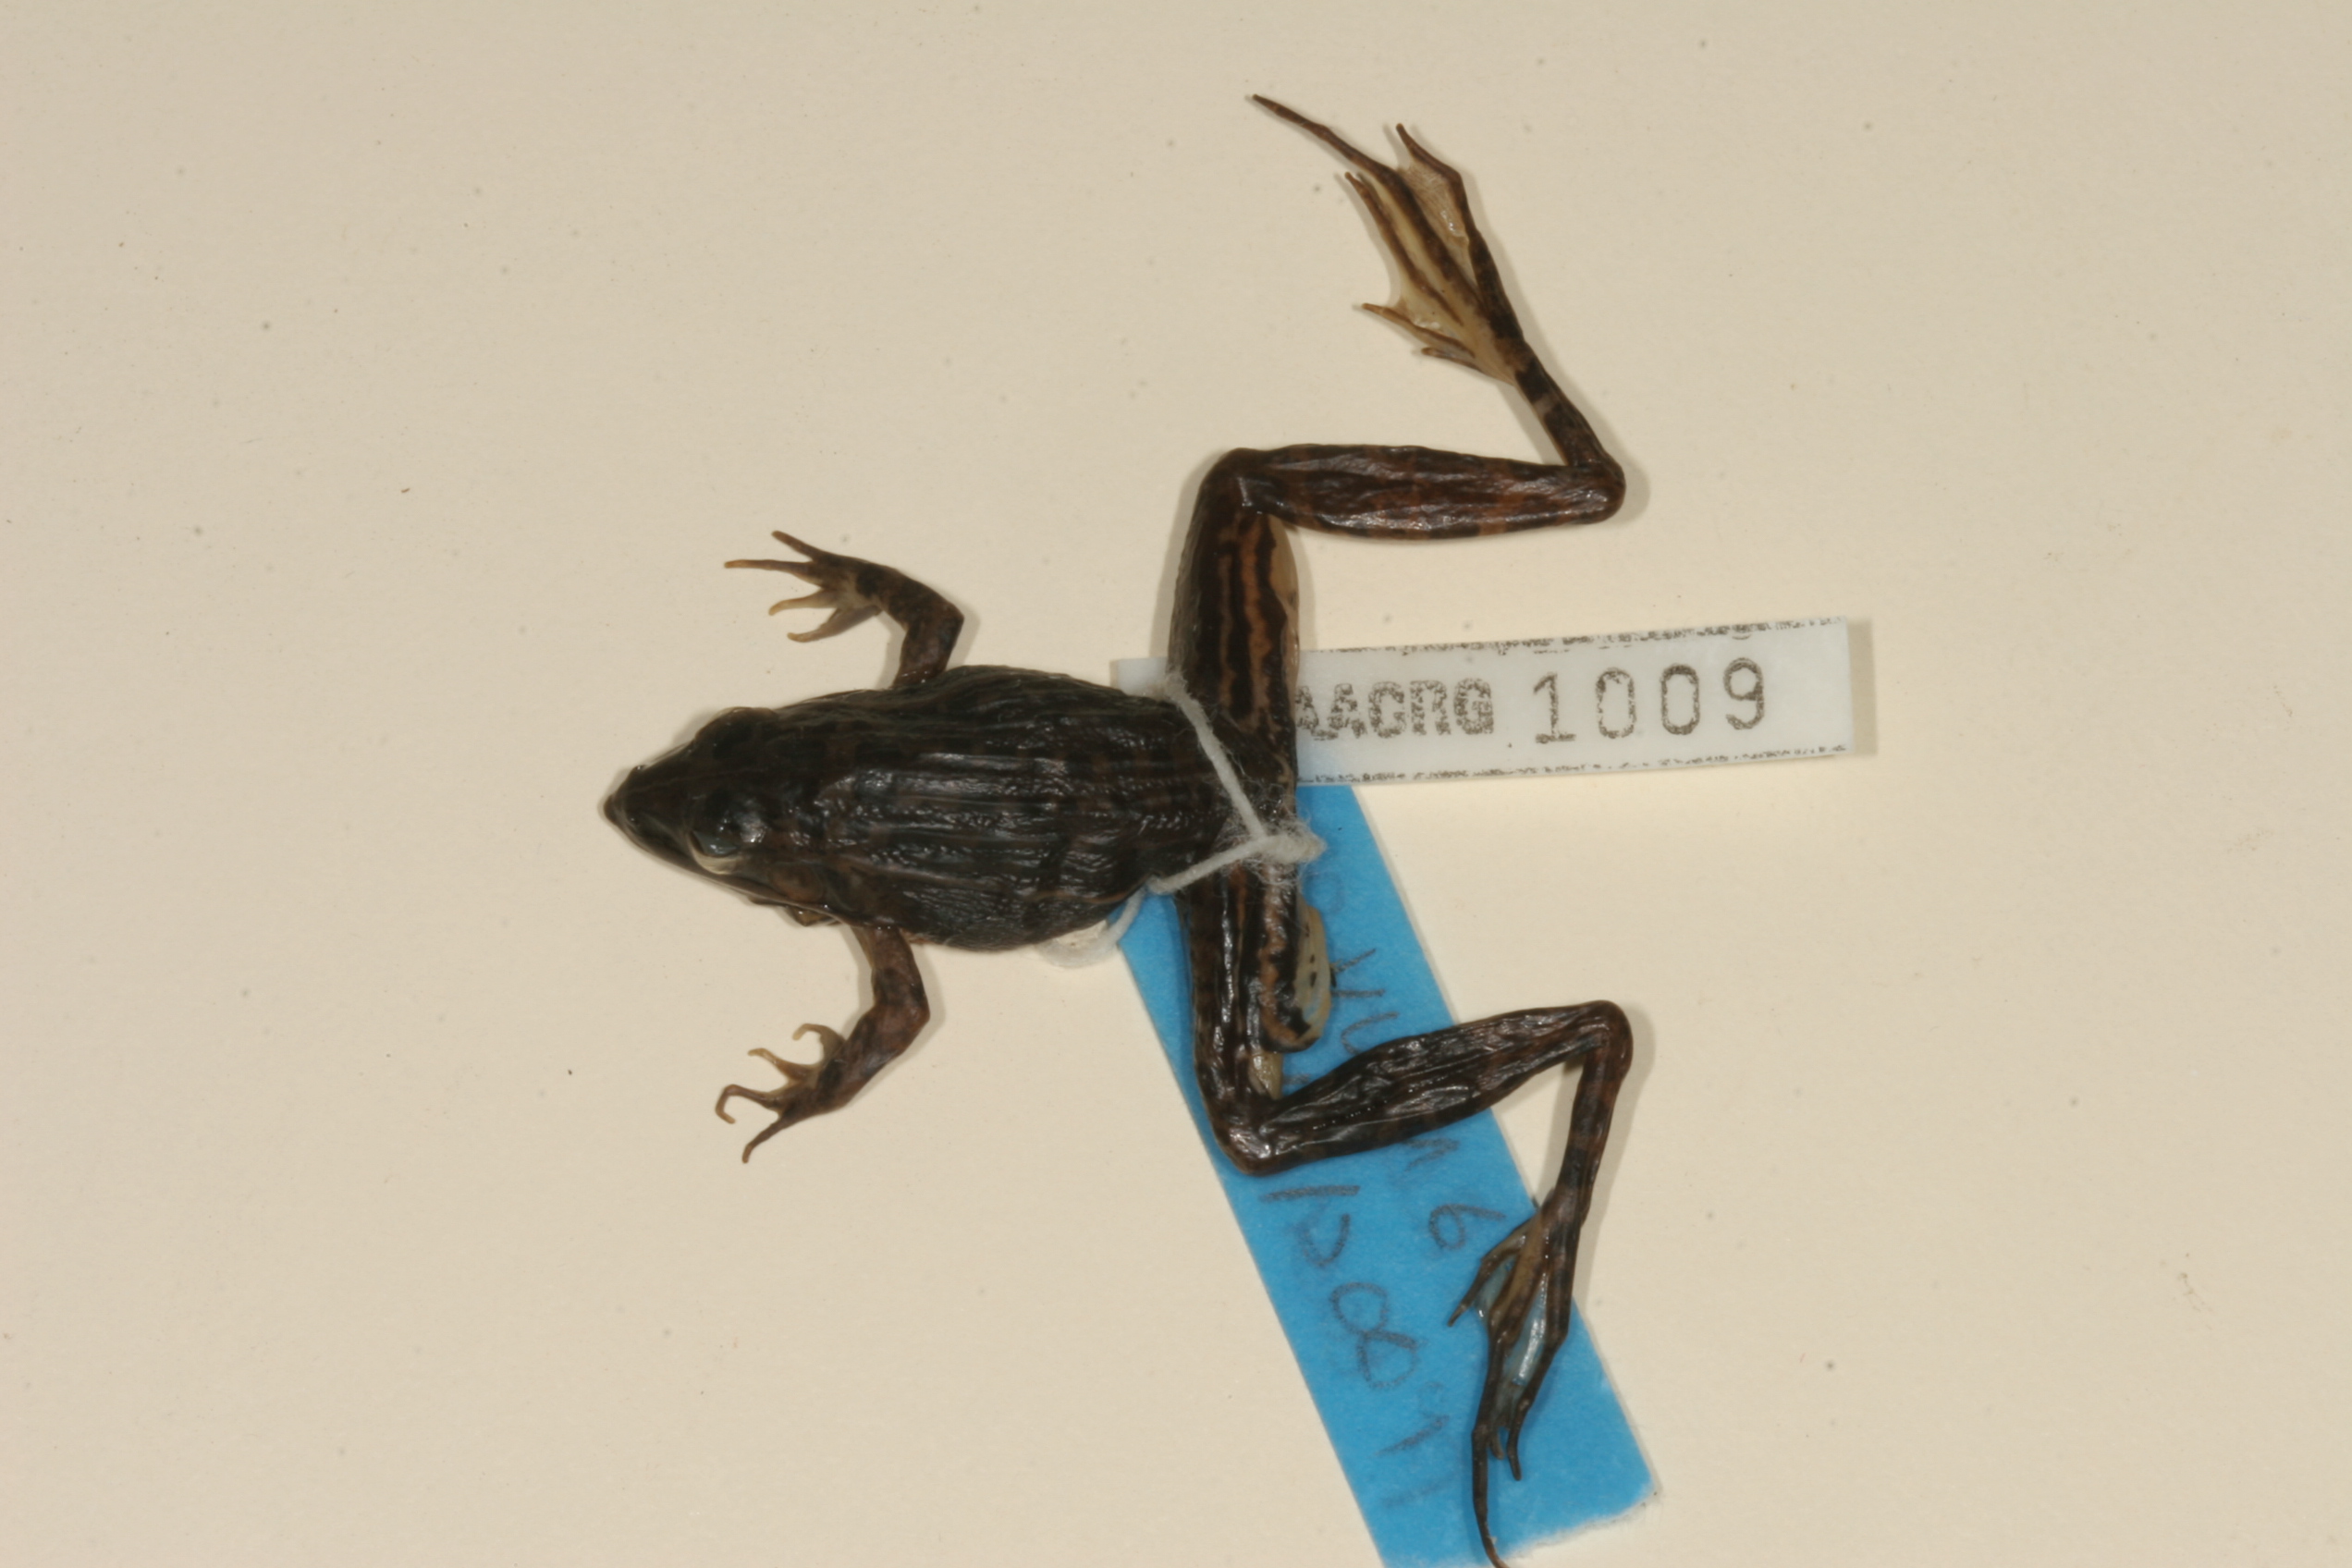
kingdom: Animalia
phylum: Chordata
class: Amphibia
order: Anura
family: Ptychadenidae
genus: Ptychadena
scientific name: Ptychadena taenioscelis
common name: Lukula grassland frog
